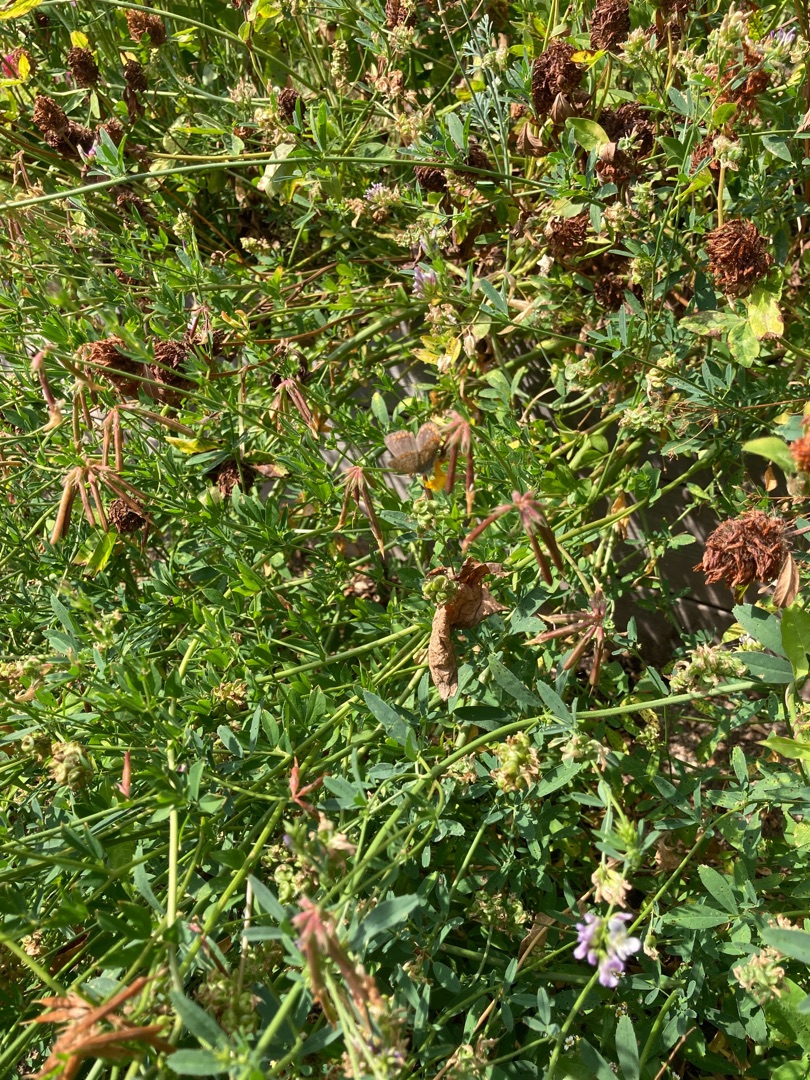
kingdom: Animalia
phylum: Arthropoda
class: Insecta
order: Lepidoptera
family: Lycaenidae
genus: Polyommatus
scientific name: Polyommatus icarus
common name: Almindelig blåfugl
